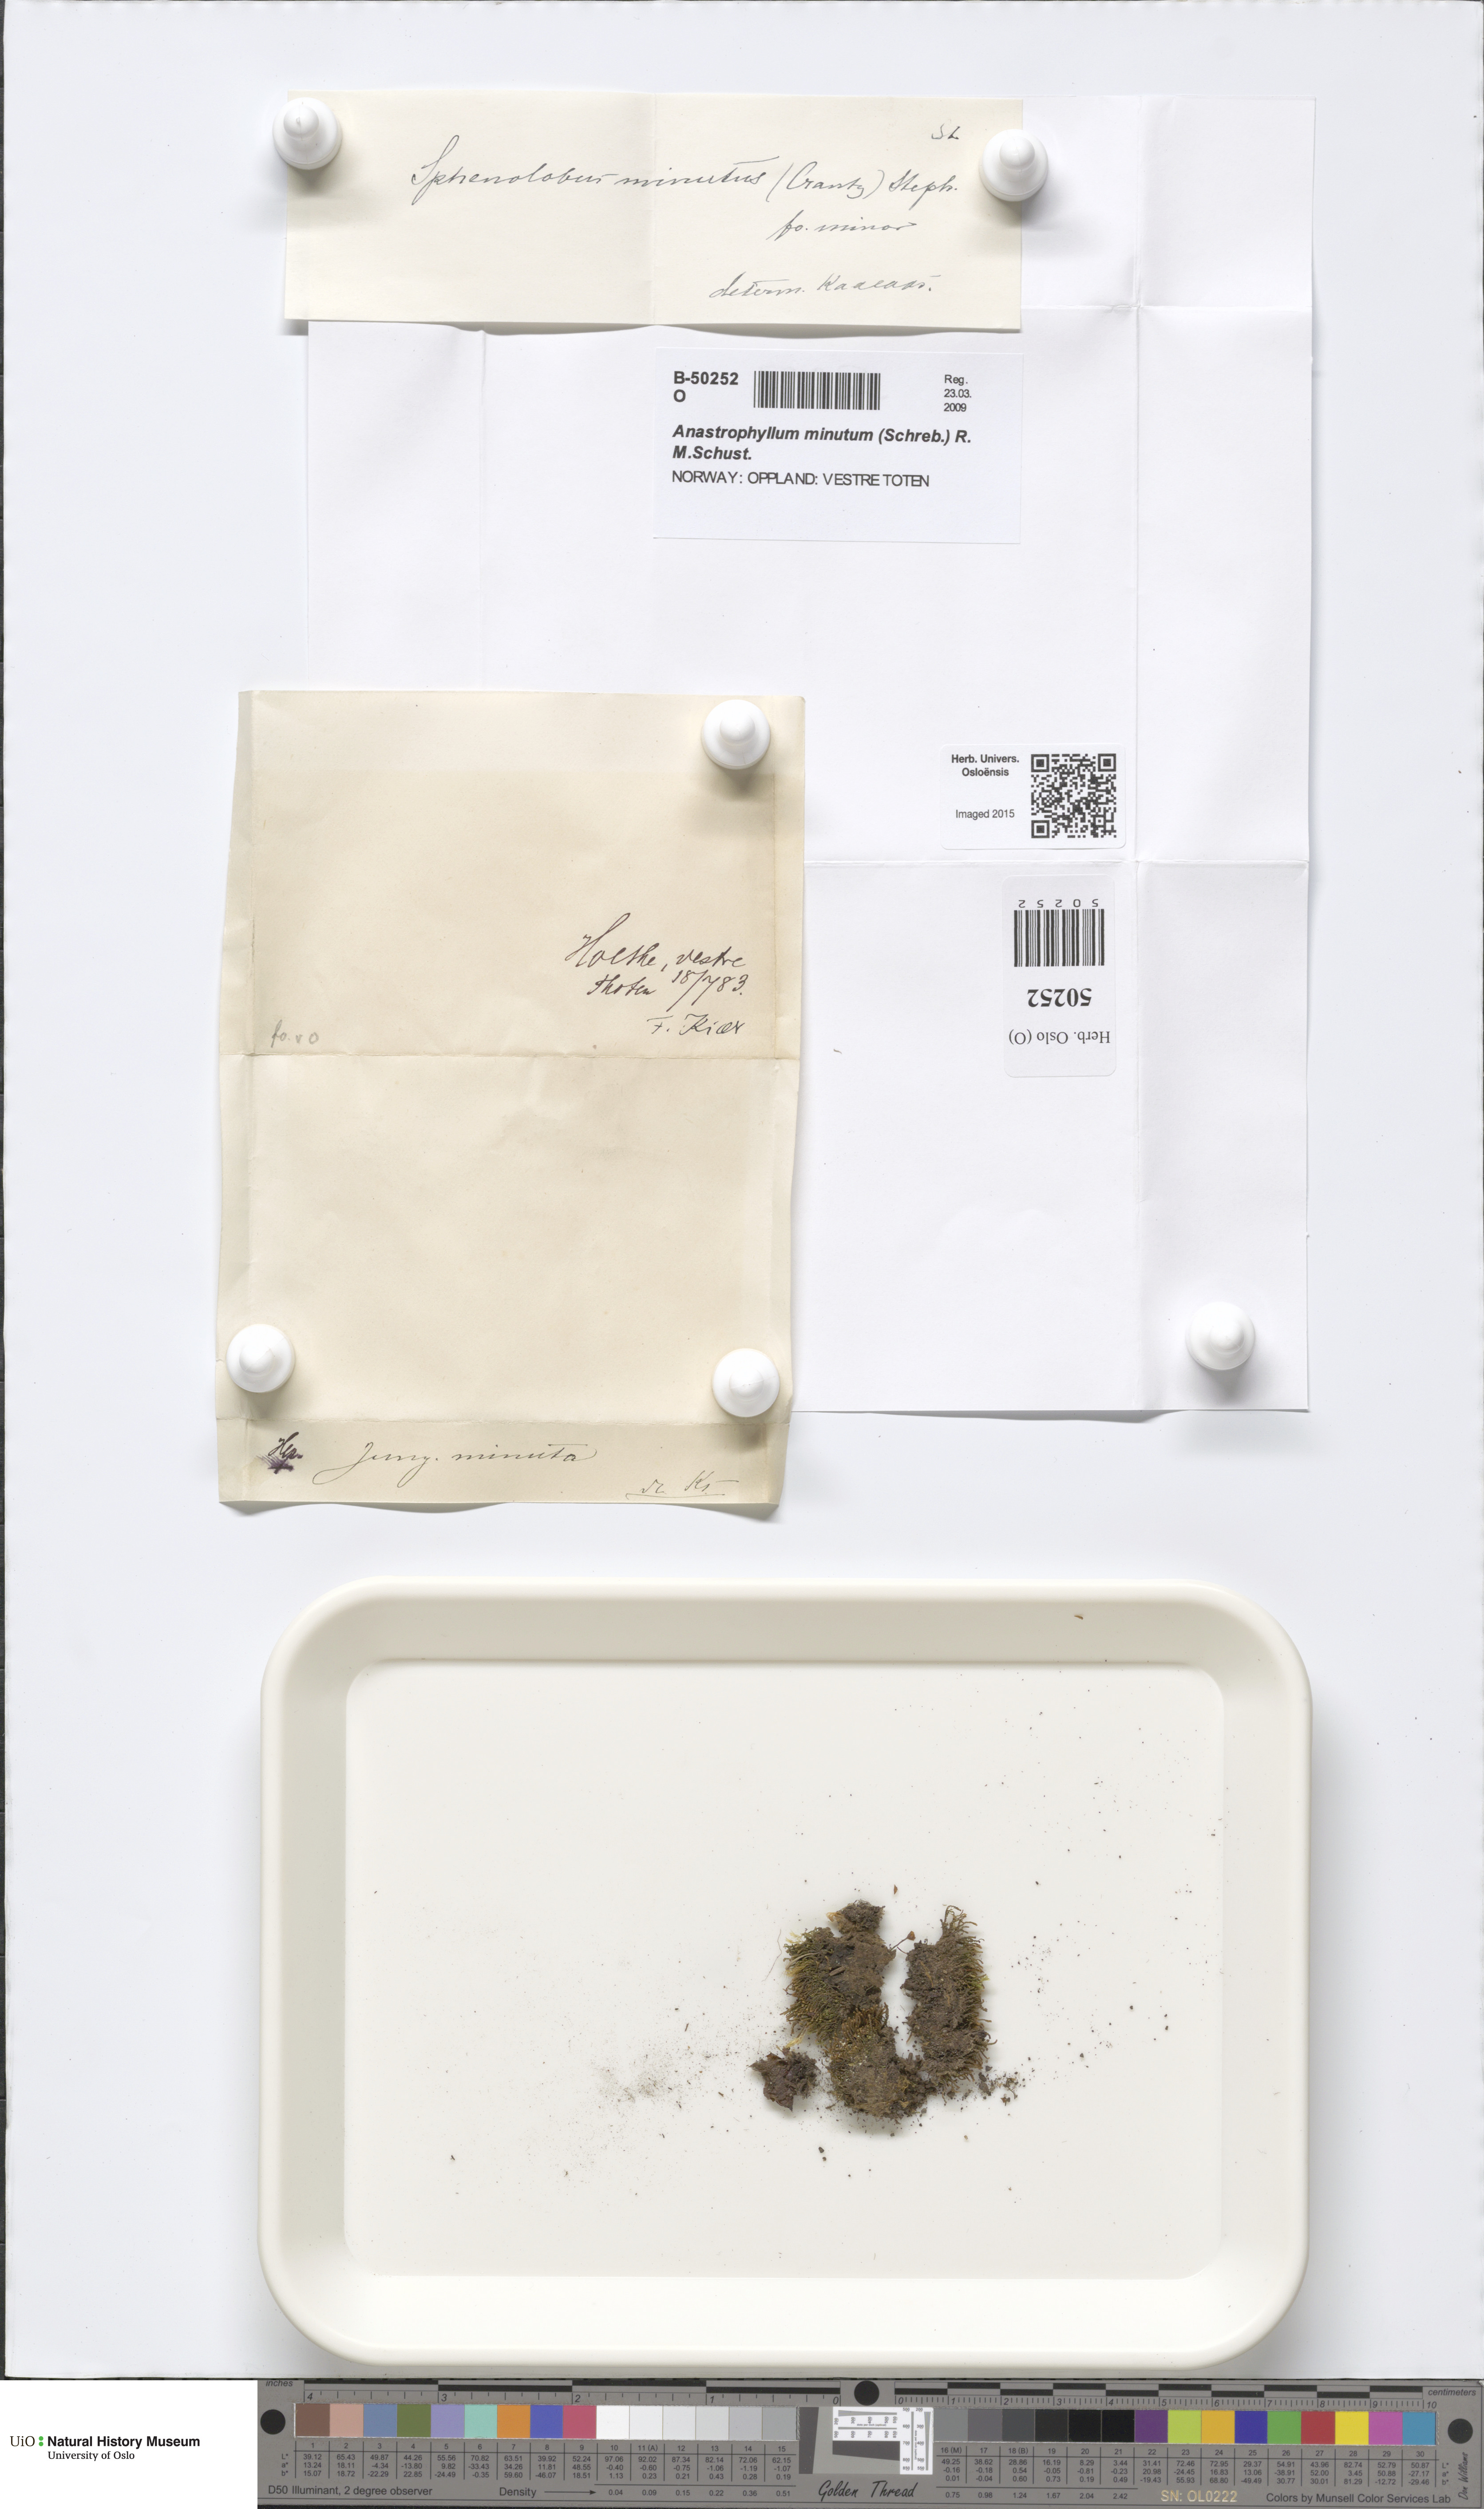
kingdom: Plantae
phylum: Marchantiophyta
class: Jungermanniopsida
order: Jungermanniales
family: Anastrophyllaceae
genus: Sphenolobus
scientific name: Sphenolobus minutus
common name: Comb notchwort
